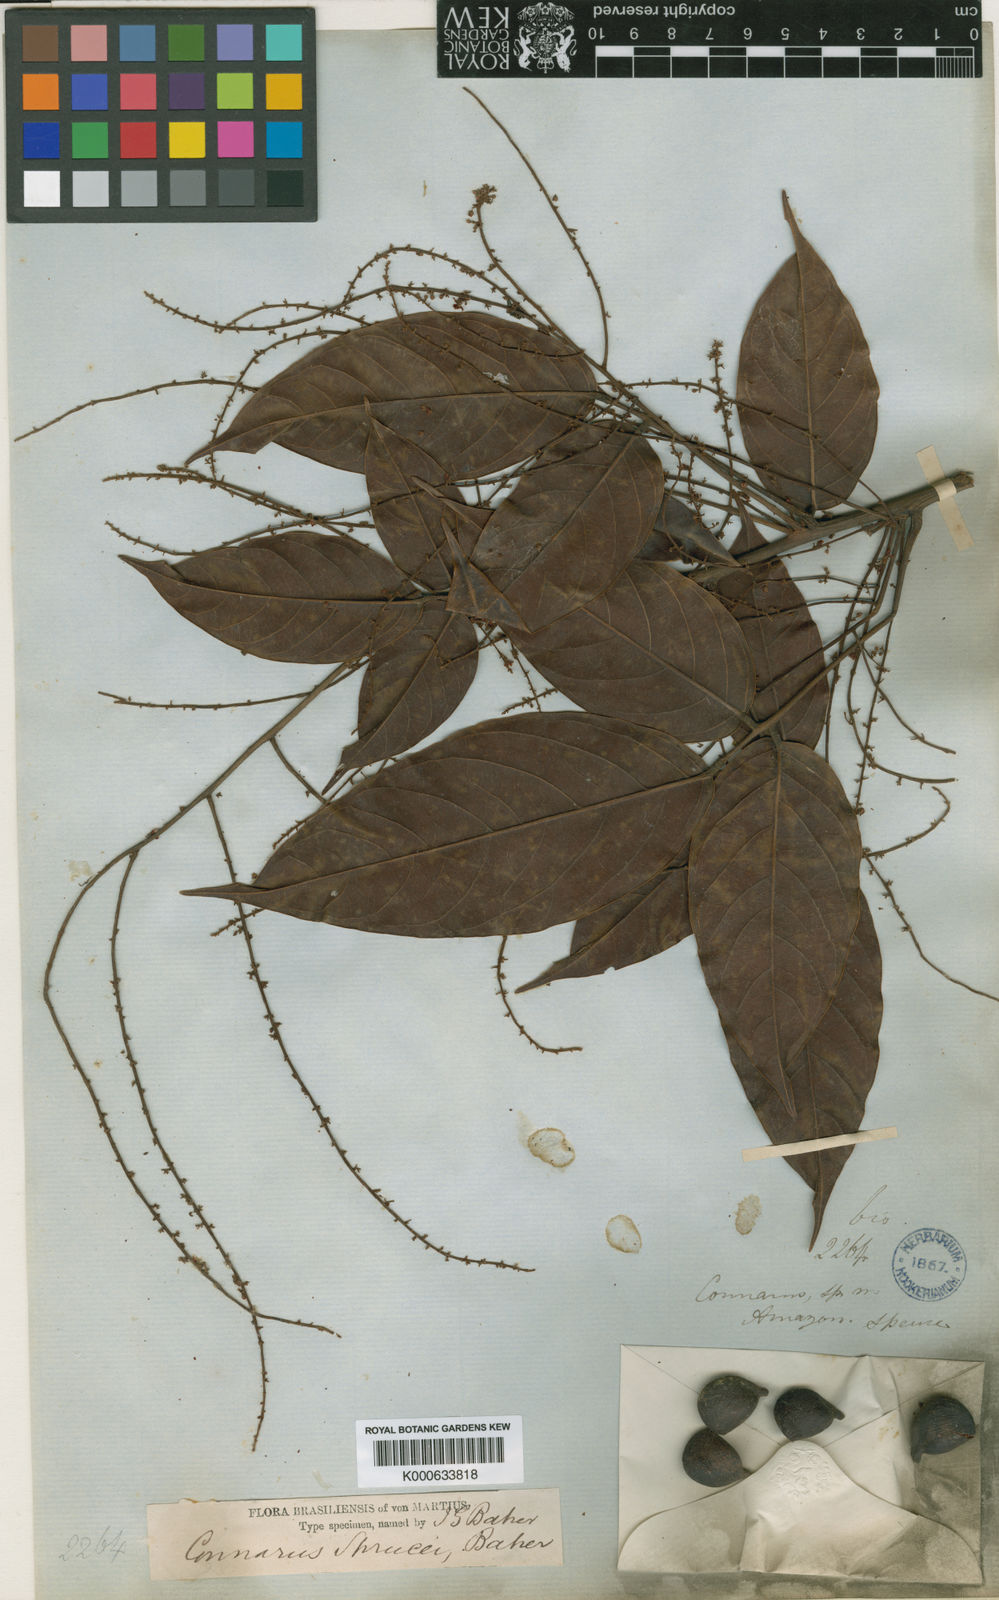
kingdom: Plantae
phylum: Tracheophyta
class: Magnoliopsida
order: Oxalidales
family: Connaraceae
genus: Connarus
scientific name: Connarus ruber
